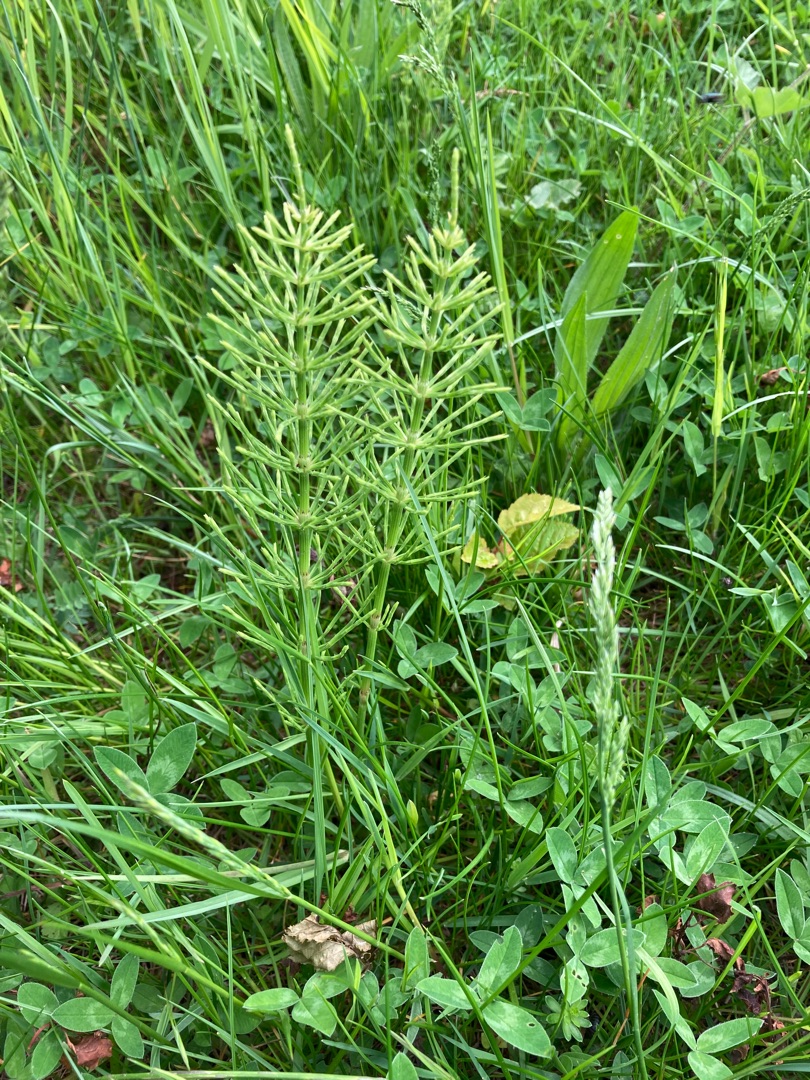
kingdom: Plantae
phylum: Tracheophyta
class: Polypodiopsida
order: Equisetales
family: Equisetaceae
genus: Equisetum
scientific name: Equisetum arvense
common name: Ager-padderok
